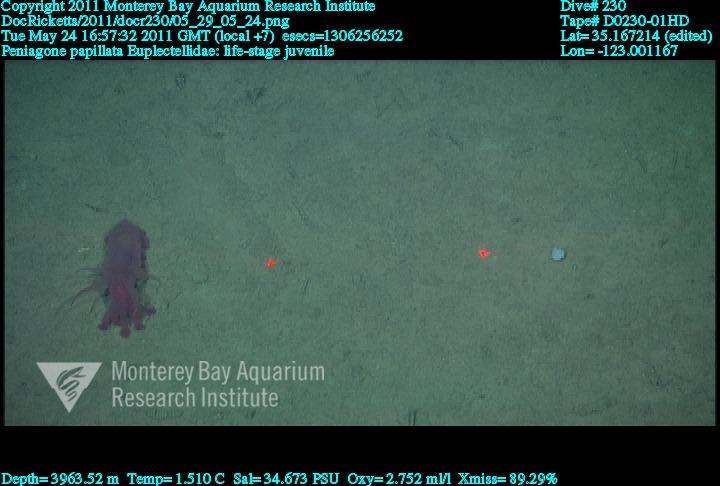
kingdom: Animalia
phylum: Porifera
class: Hexactinellida
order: Lyssacinosida
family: Euplectellidae
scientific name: Euplectellidae
